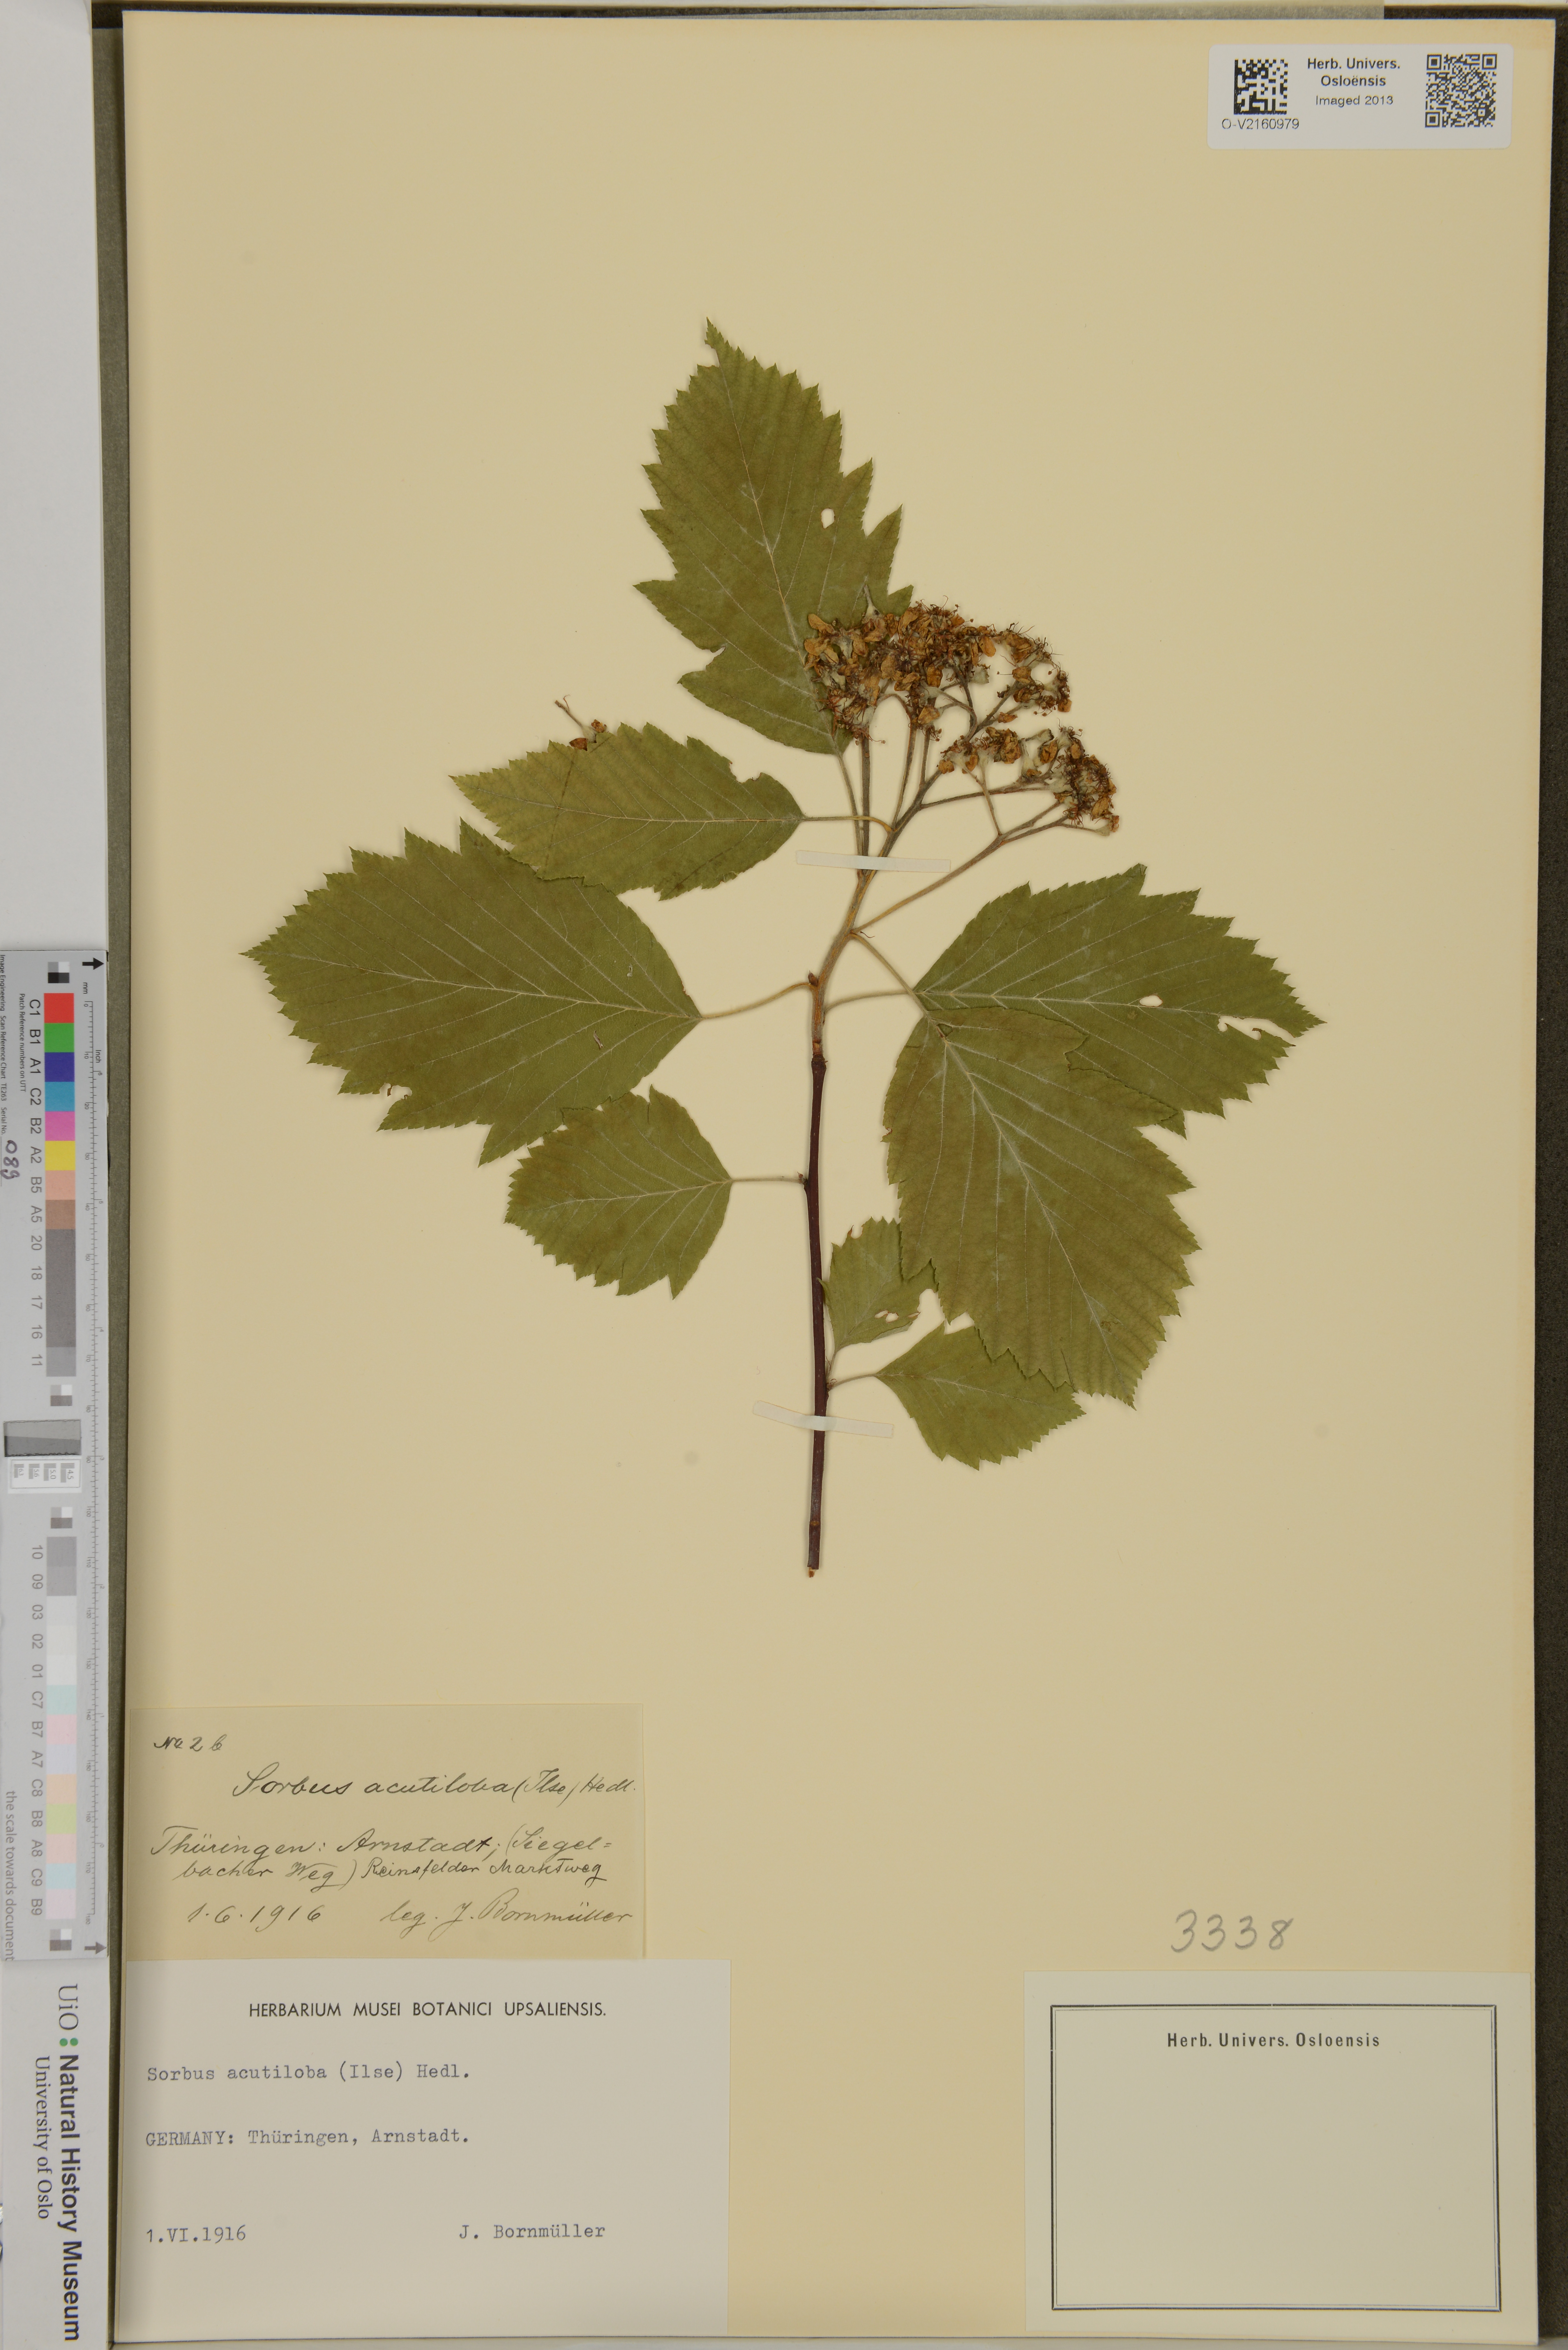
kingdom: Plantae
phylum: Tracheophyta
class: Magnoliopsida
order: Rosales
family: Rosaceae
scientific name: Rosaceae
